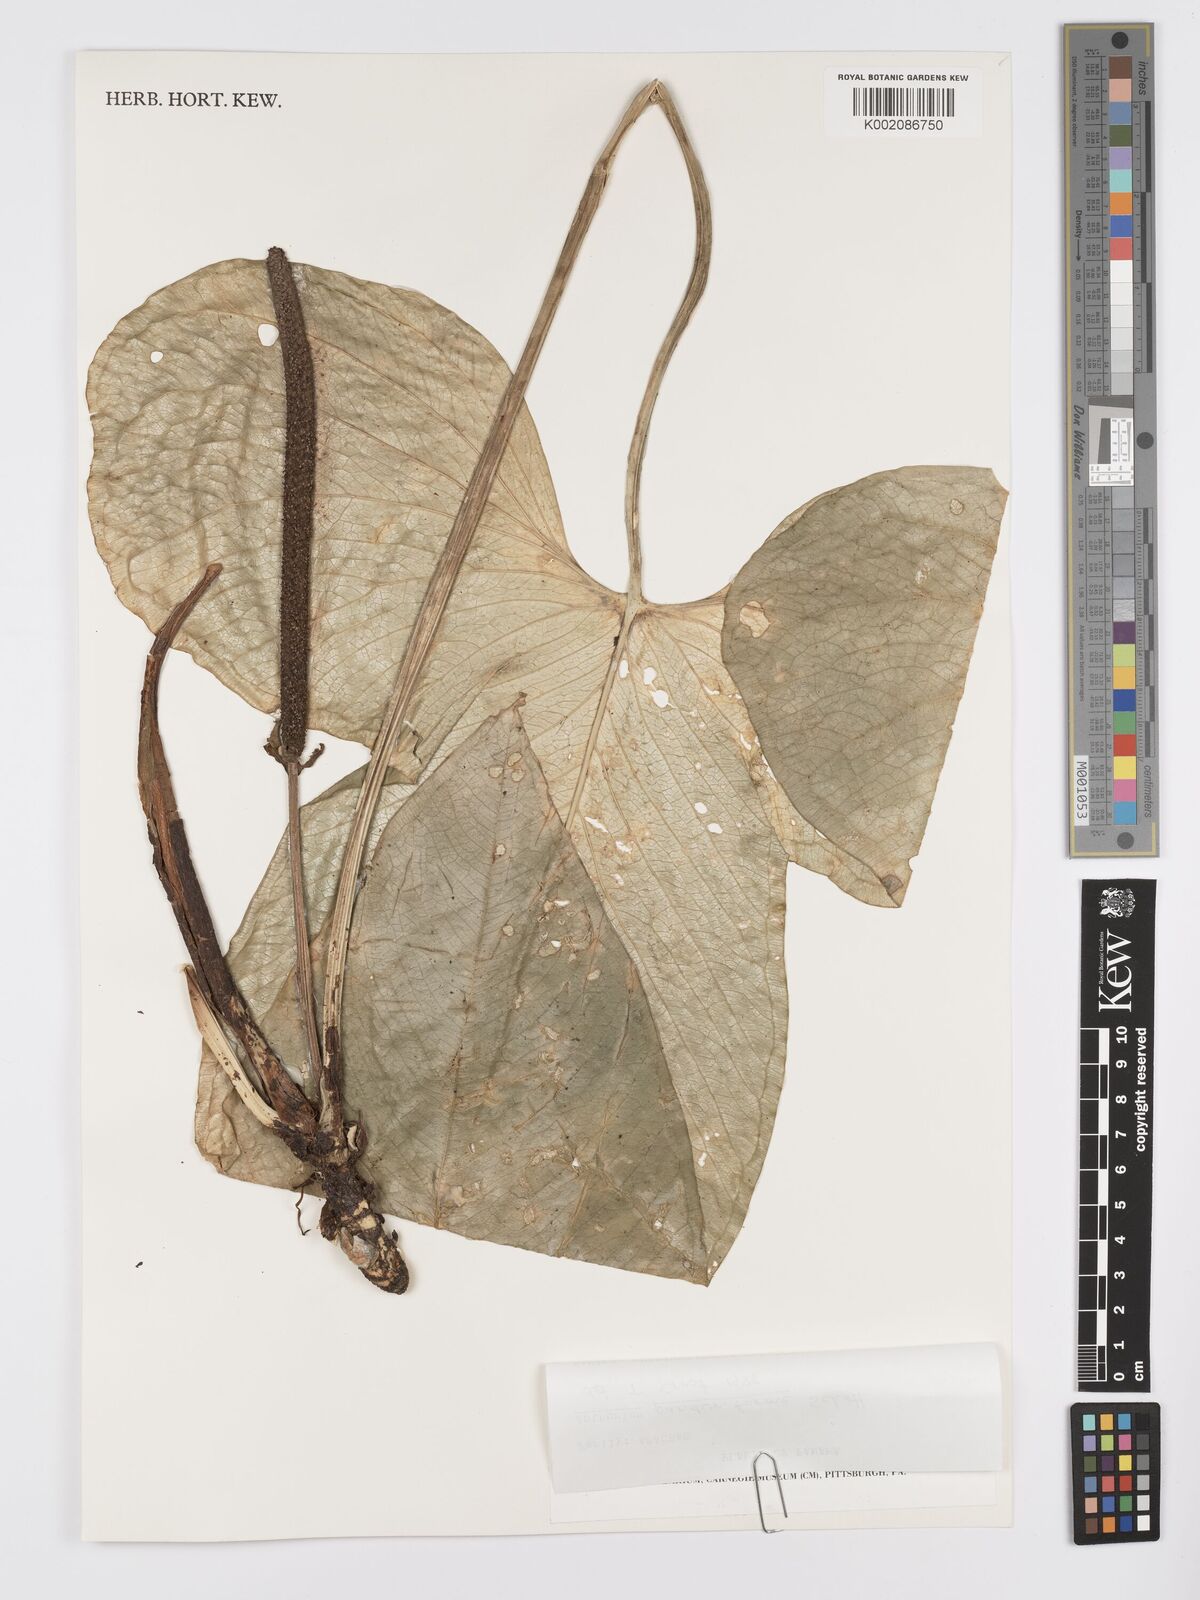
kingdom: Plantae
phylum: Tracheophyta
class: Liliopsida
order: Alismatales
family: Araceae
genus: Anthurium
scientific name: Anthurium panduriforme
